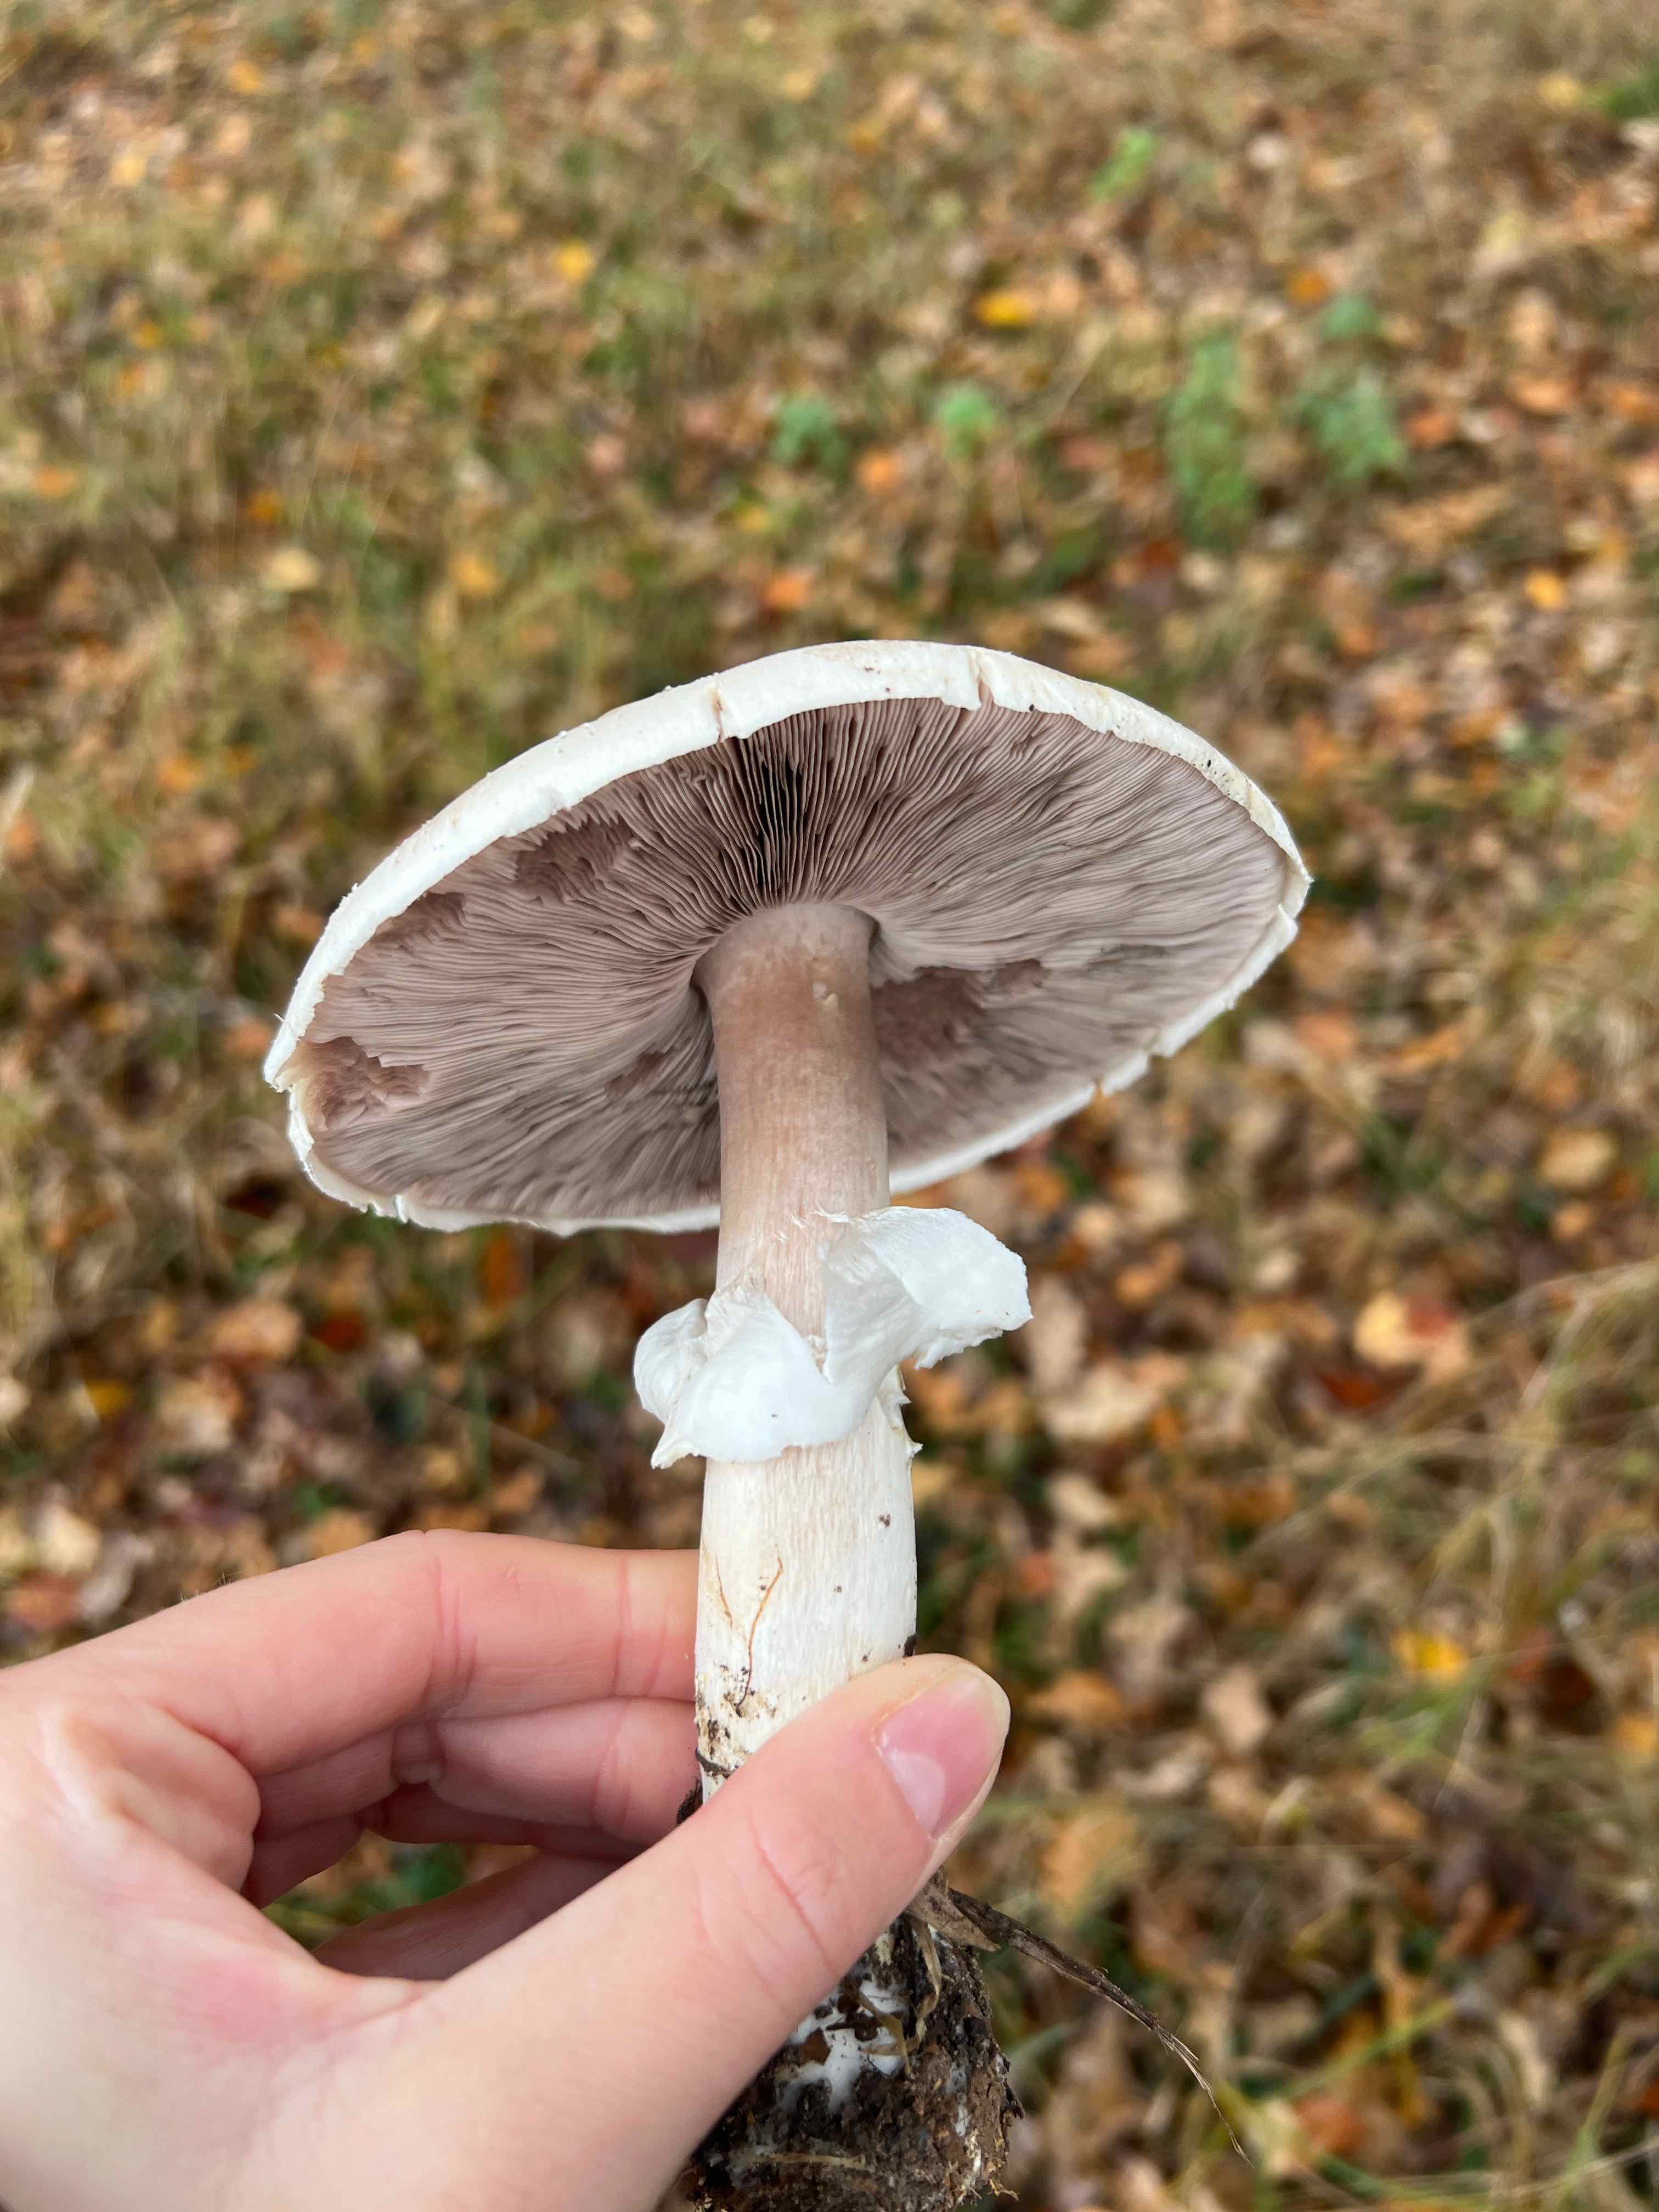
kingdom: Fungi
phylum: Basidiomycota
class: Agaricomycetes
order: Agaricales
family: Agaricaceae
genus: Agaricus
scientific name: Agaricus sylvicola
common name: gulhvid champignon
